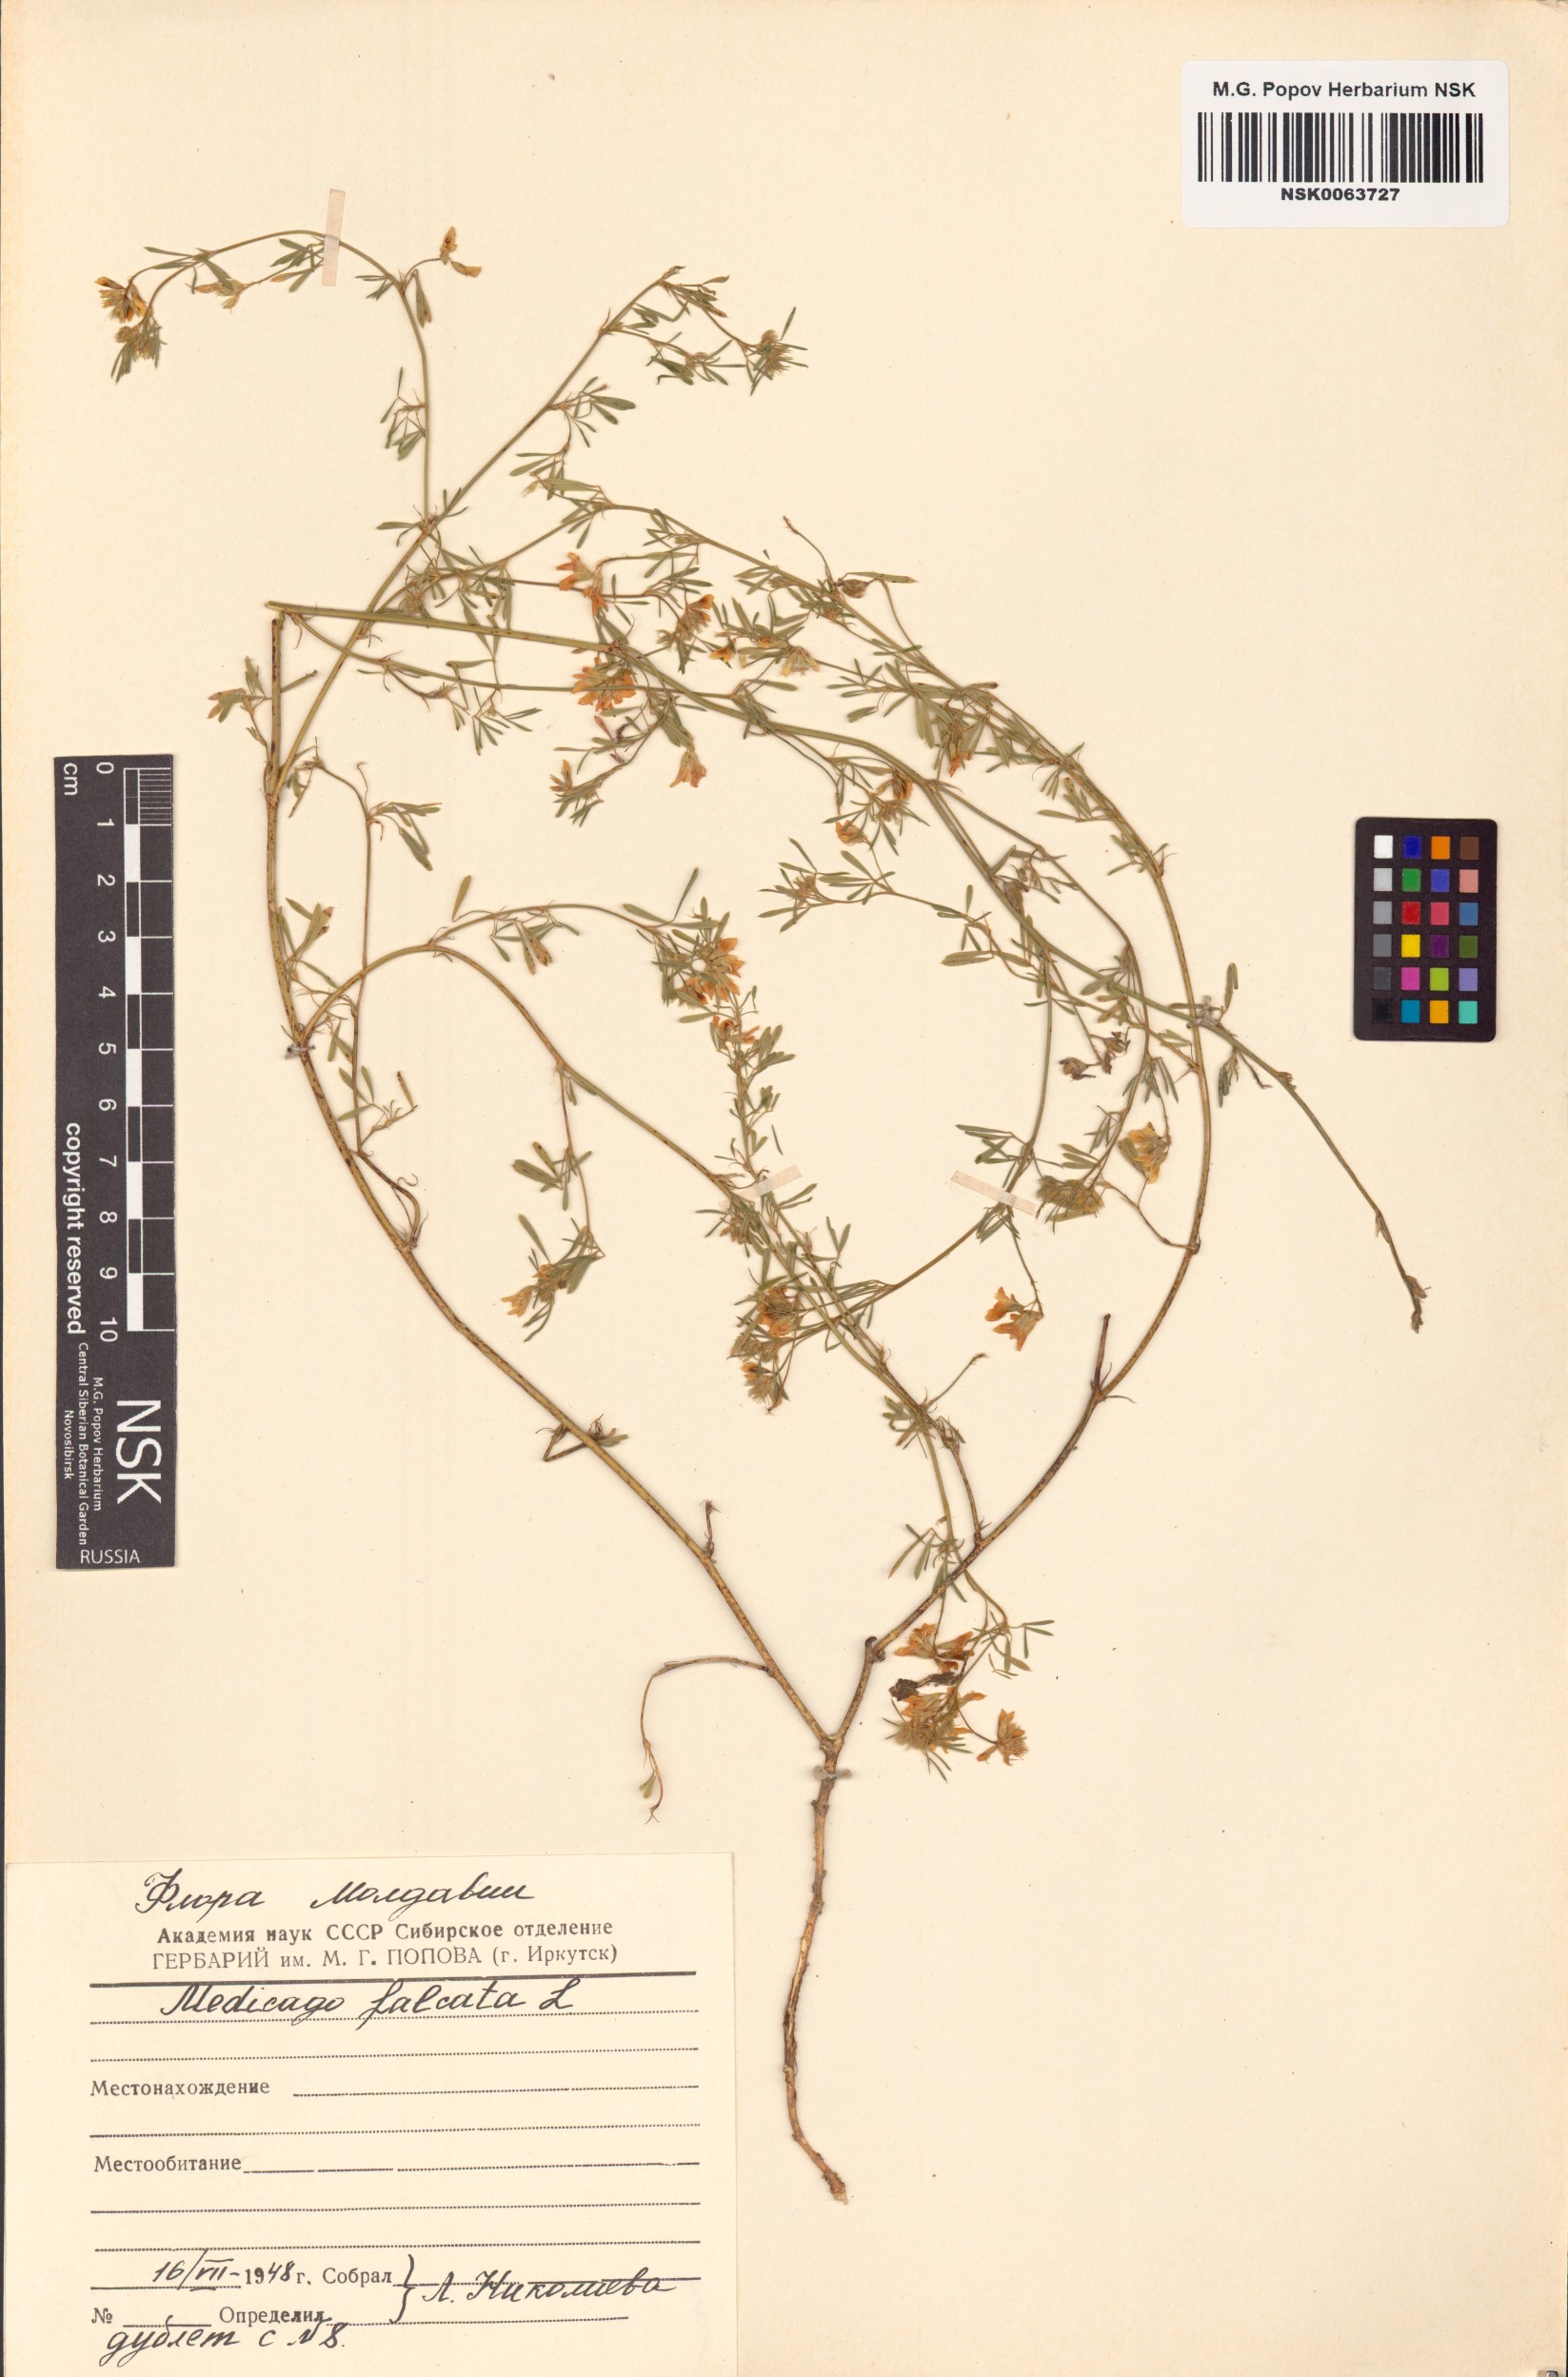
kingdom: Plantae
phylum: Tracheophyta
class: Magnoliopsida
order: Fabales
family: Fabaceae
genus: Medicago
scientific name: Medicago falcata
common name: Sickle medick
